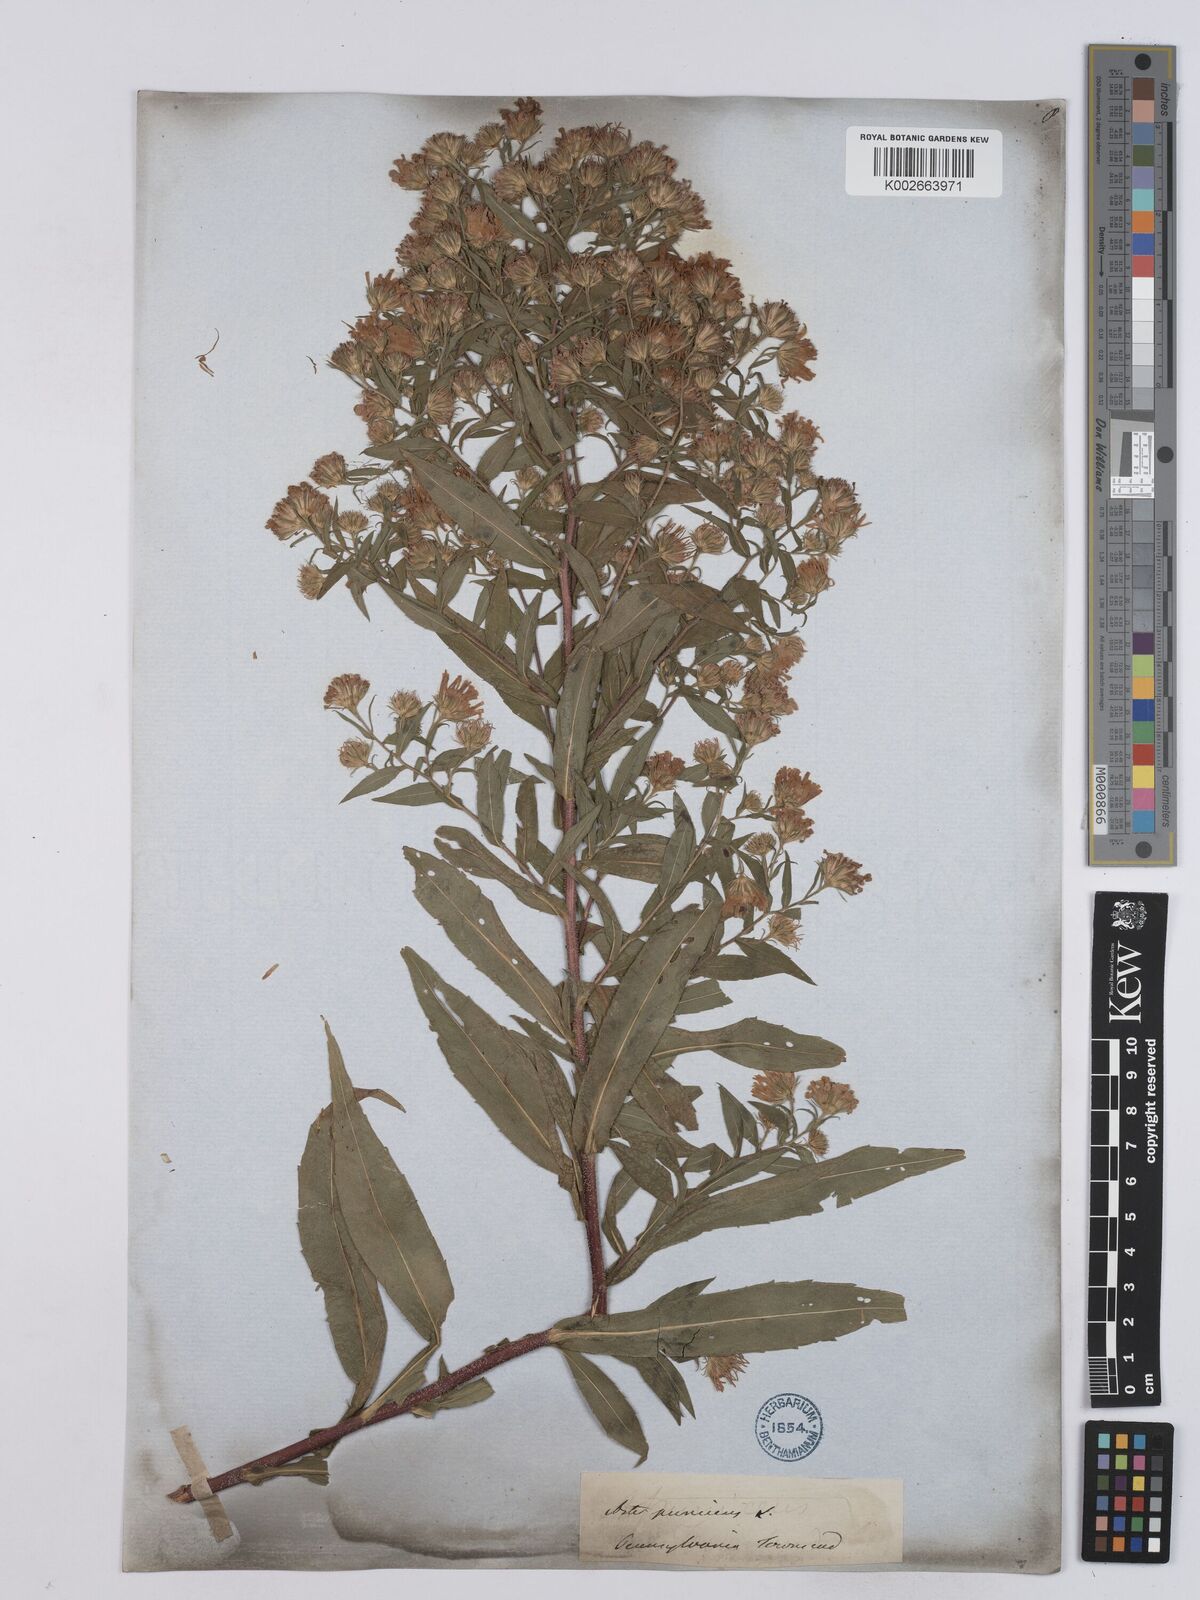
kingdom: Plantae
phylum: Tracheophyta
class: Magnoliopsida
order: Asterales
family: Asteraceae
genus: Symphyotrichum
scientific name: Symphyotrichum puniceum
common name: Bog aster
